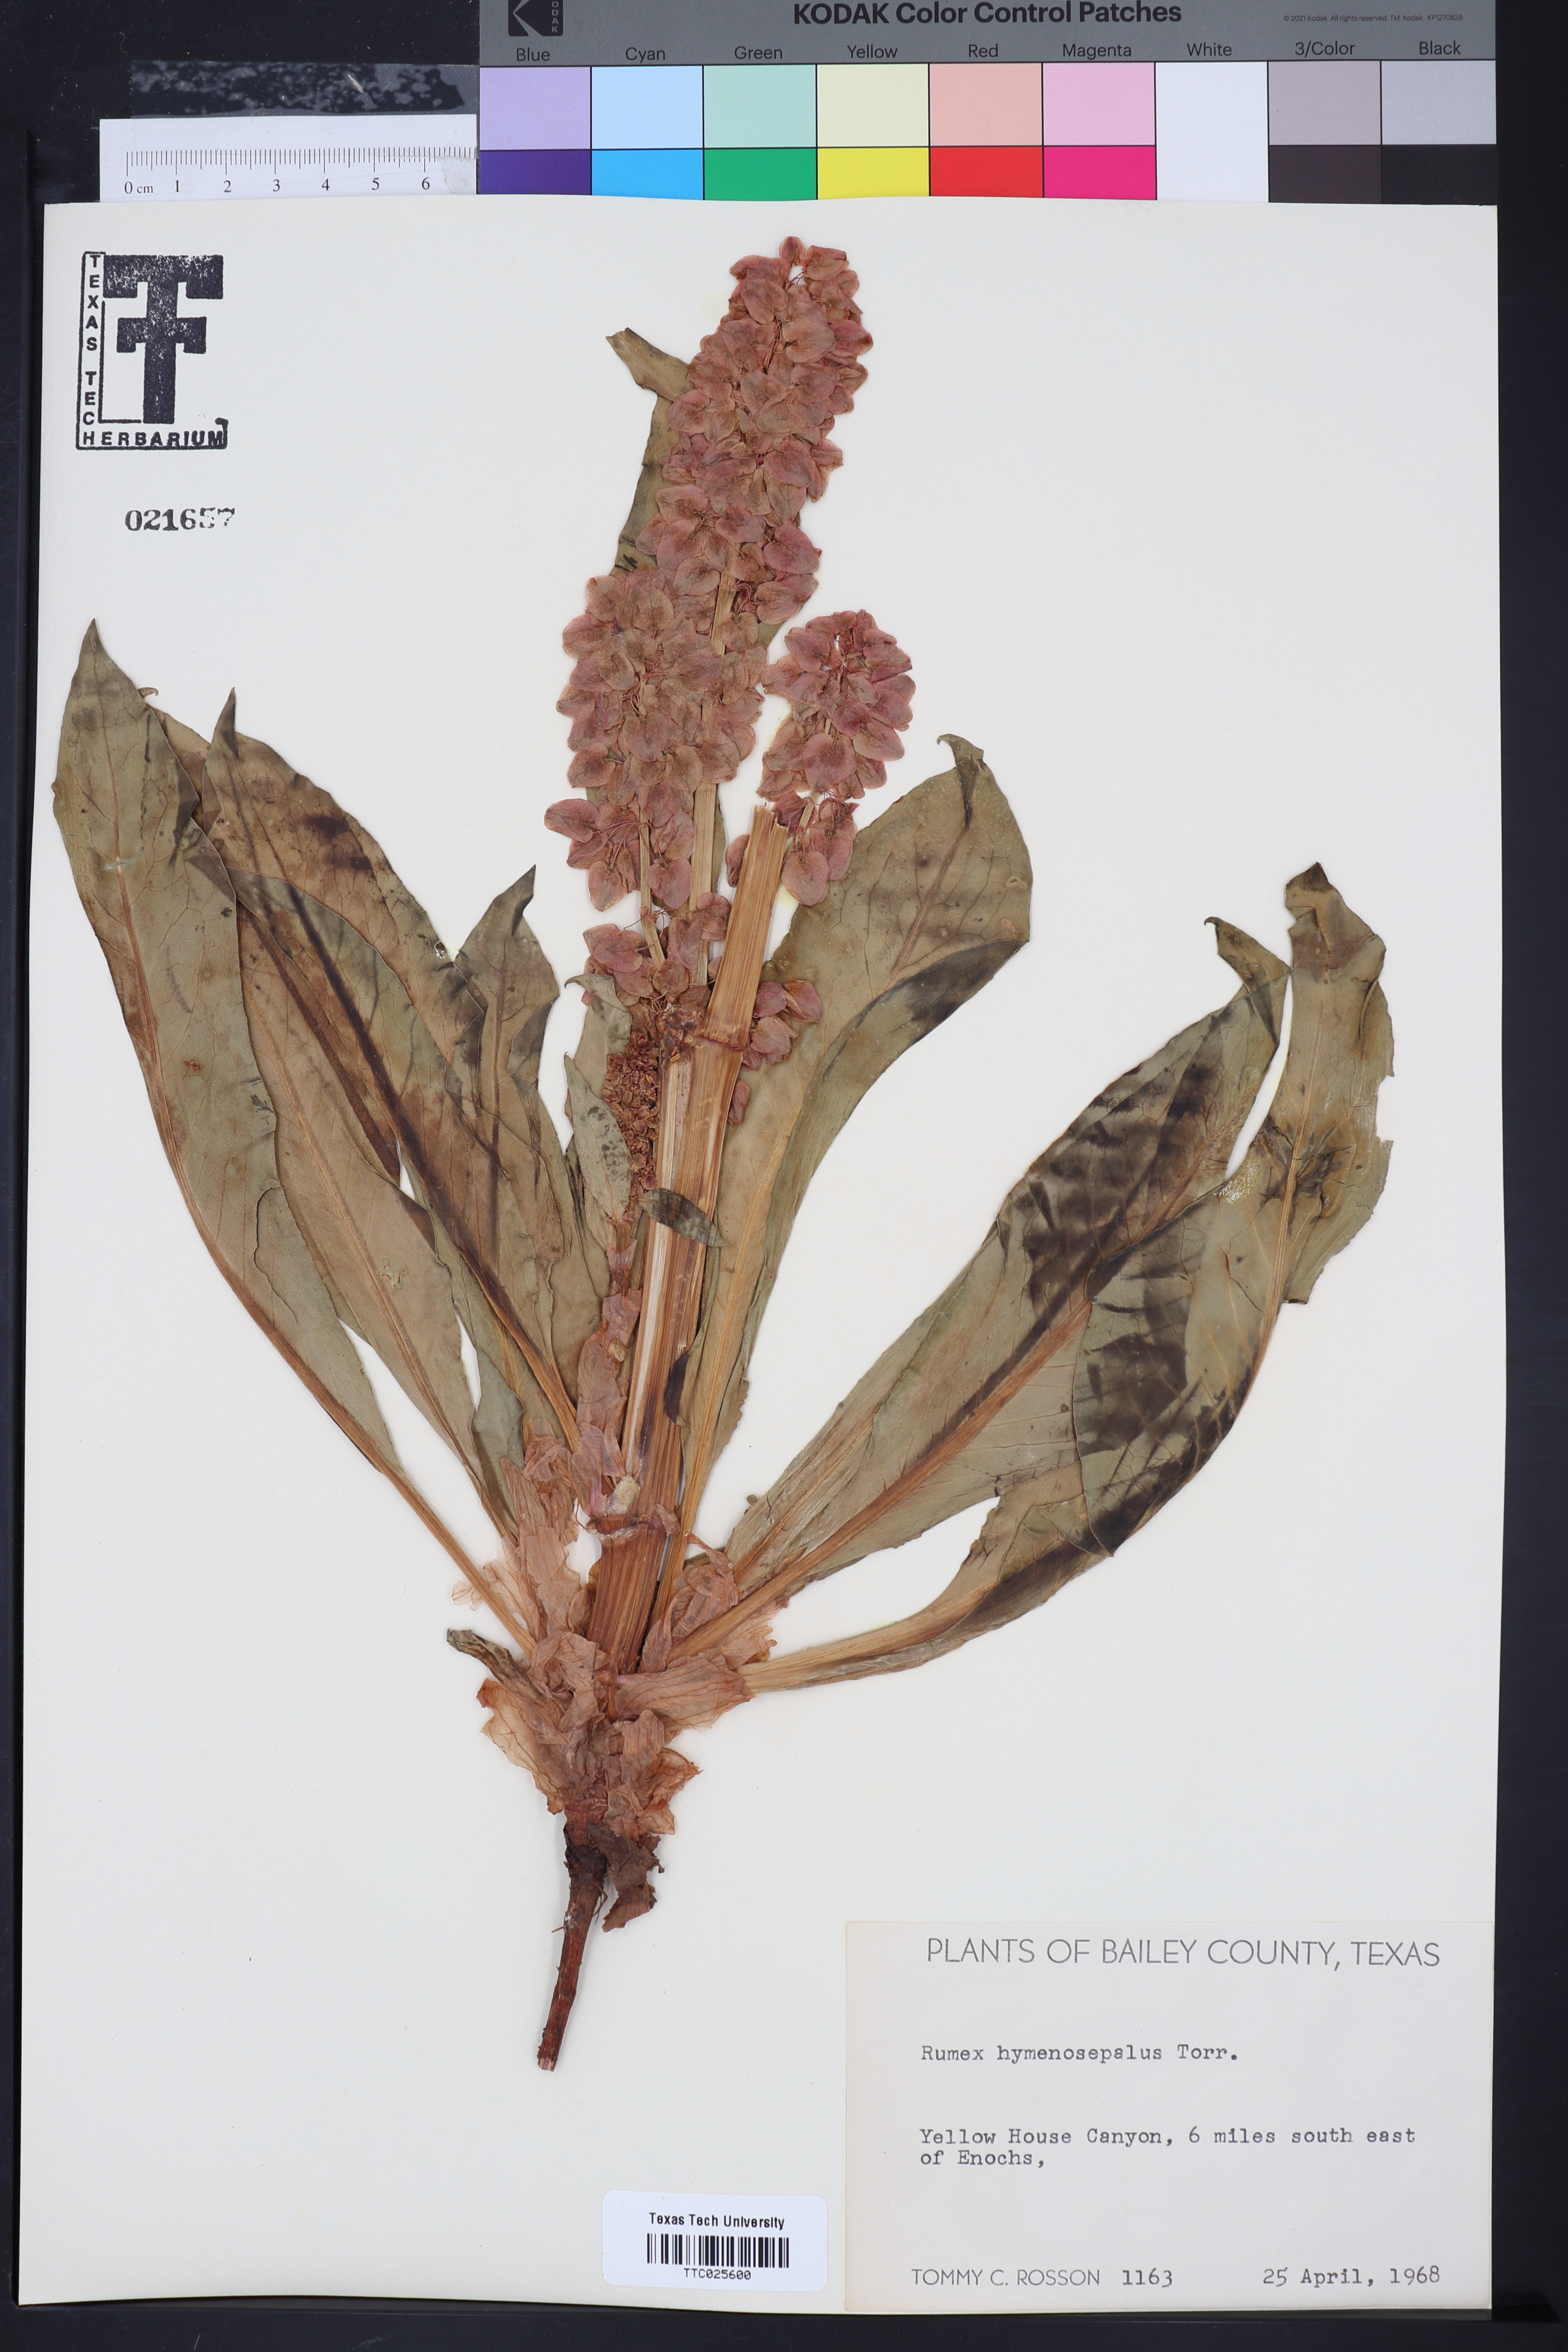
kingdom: Plantae
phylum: Tracheophyta
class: Magnoliopsida
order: Caryophyllales
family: Polygonaceae
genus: Rumex
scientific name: Rumex hymenosepalus
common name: Ganagra
